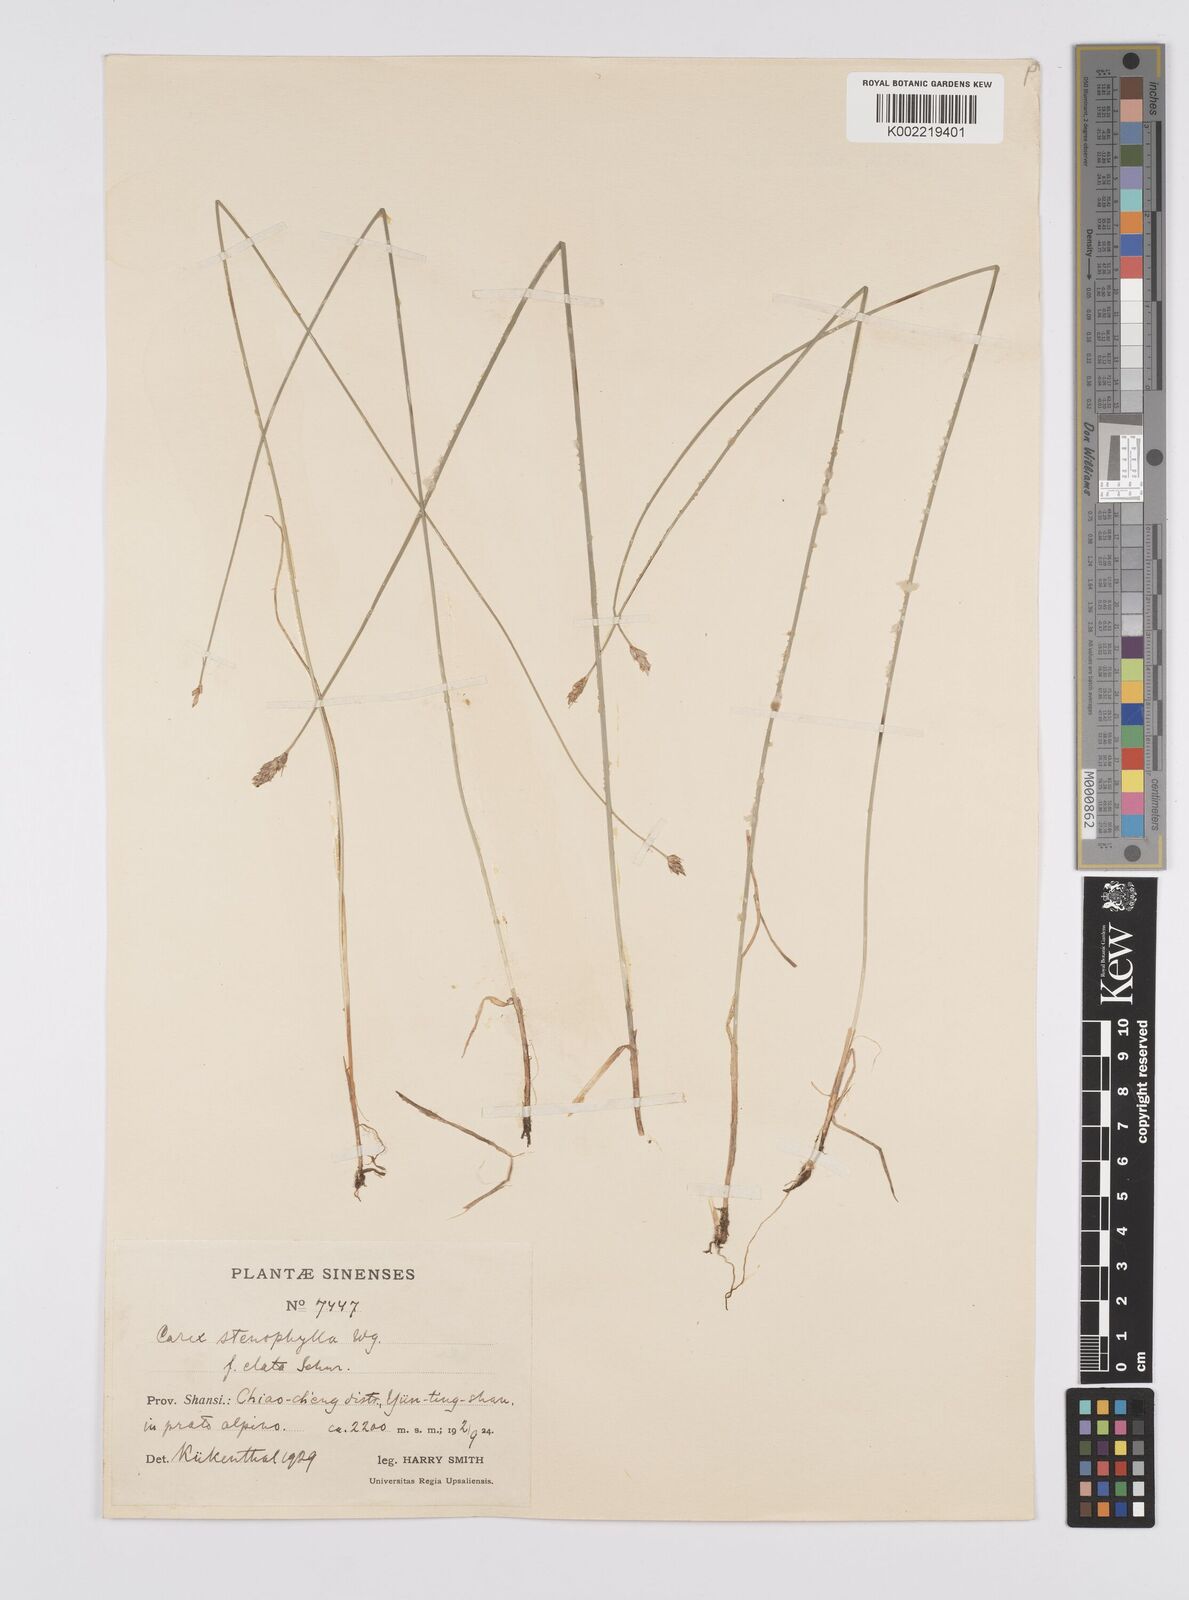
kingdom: Plantae
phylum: Tracheophyta
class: Liliopsida
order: Poales
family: Cyperaceae
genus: Carex
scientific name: Carex stenophylla
